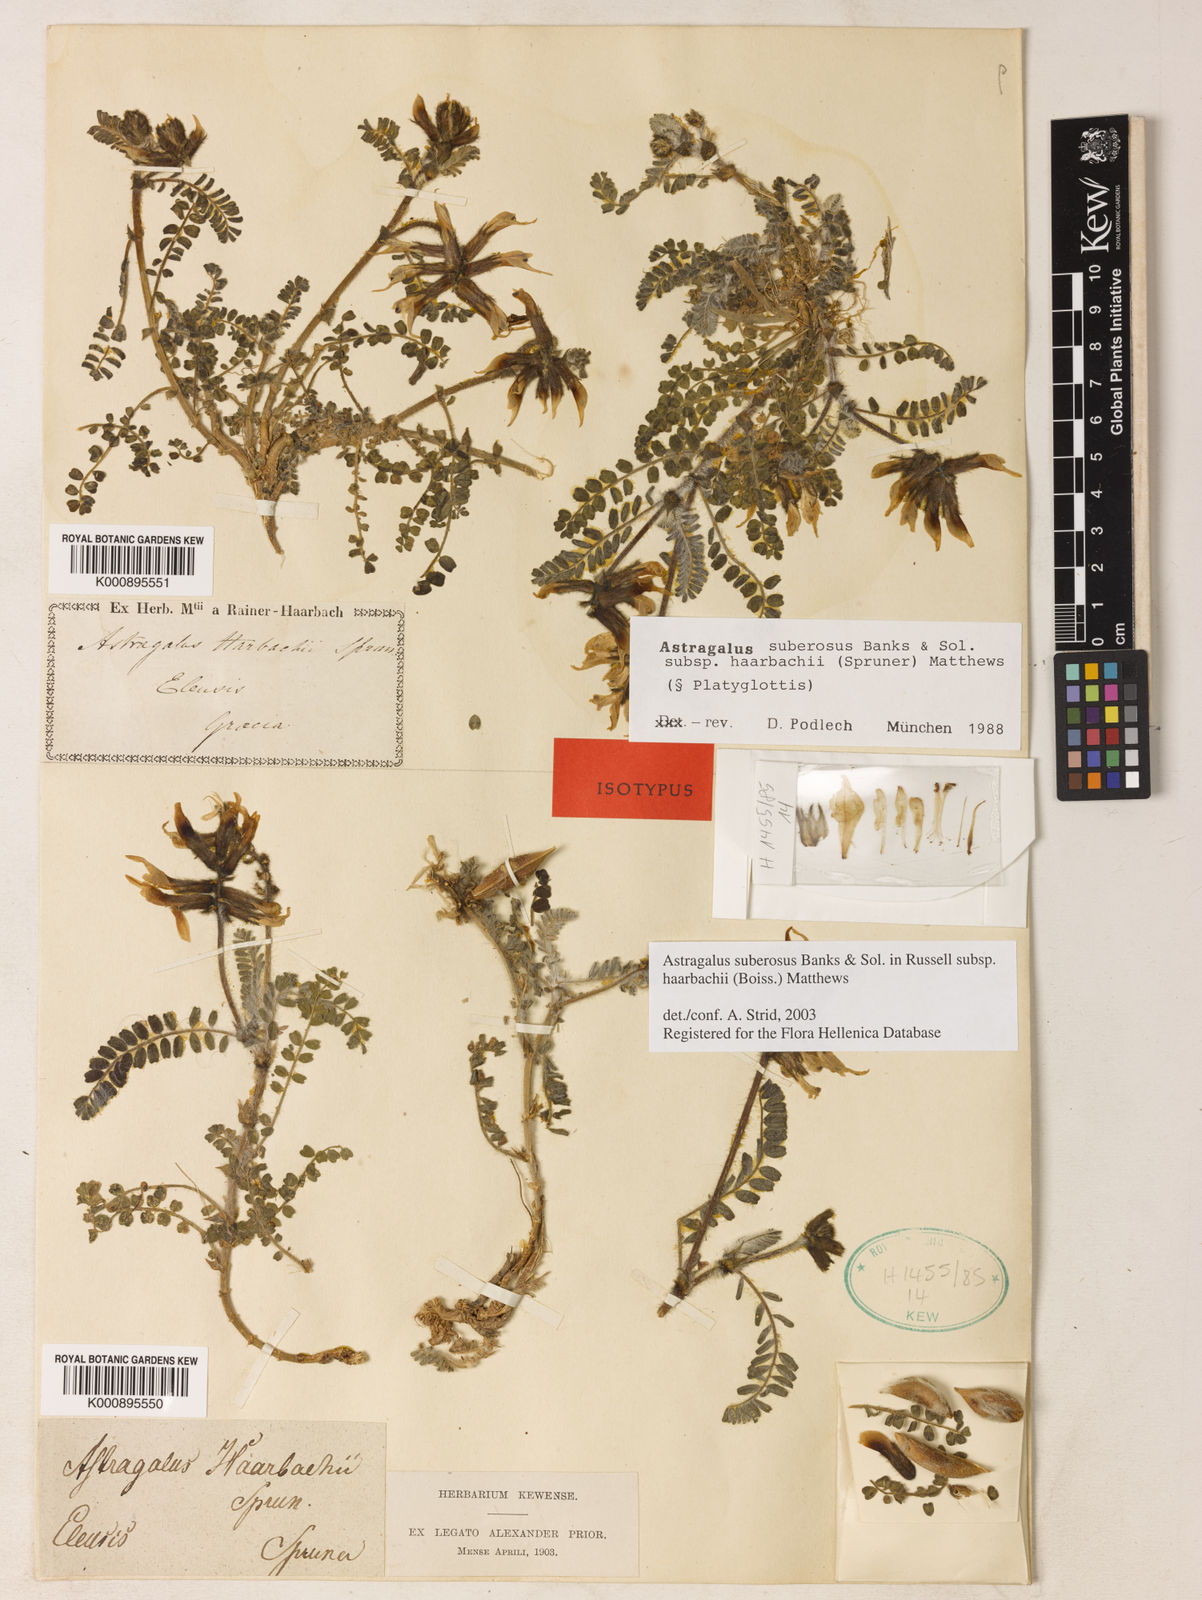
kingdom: Plantae
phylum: Tracheophyta
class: Magnoliopsida
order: Fabales
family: Fabaceae
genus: Astragalus
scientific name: Astragalus suberosus
